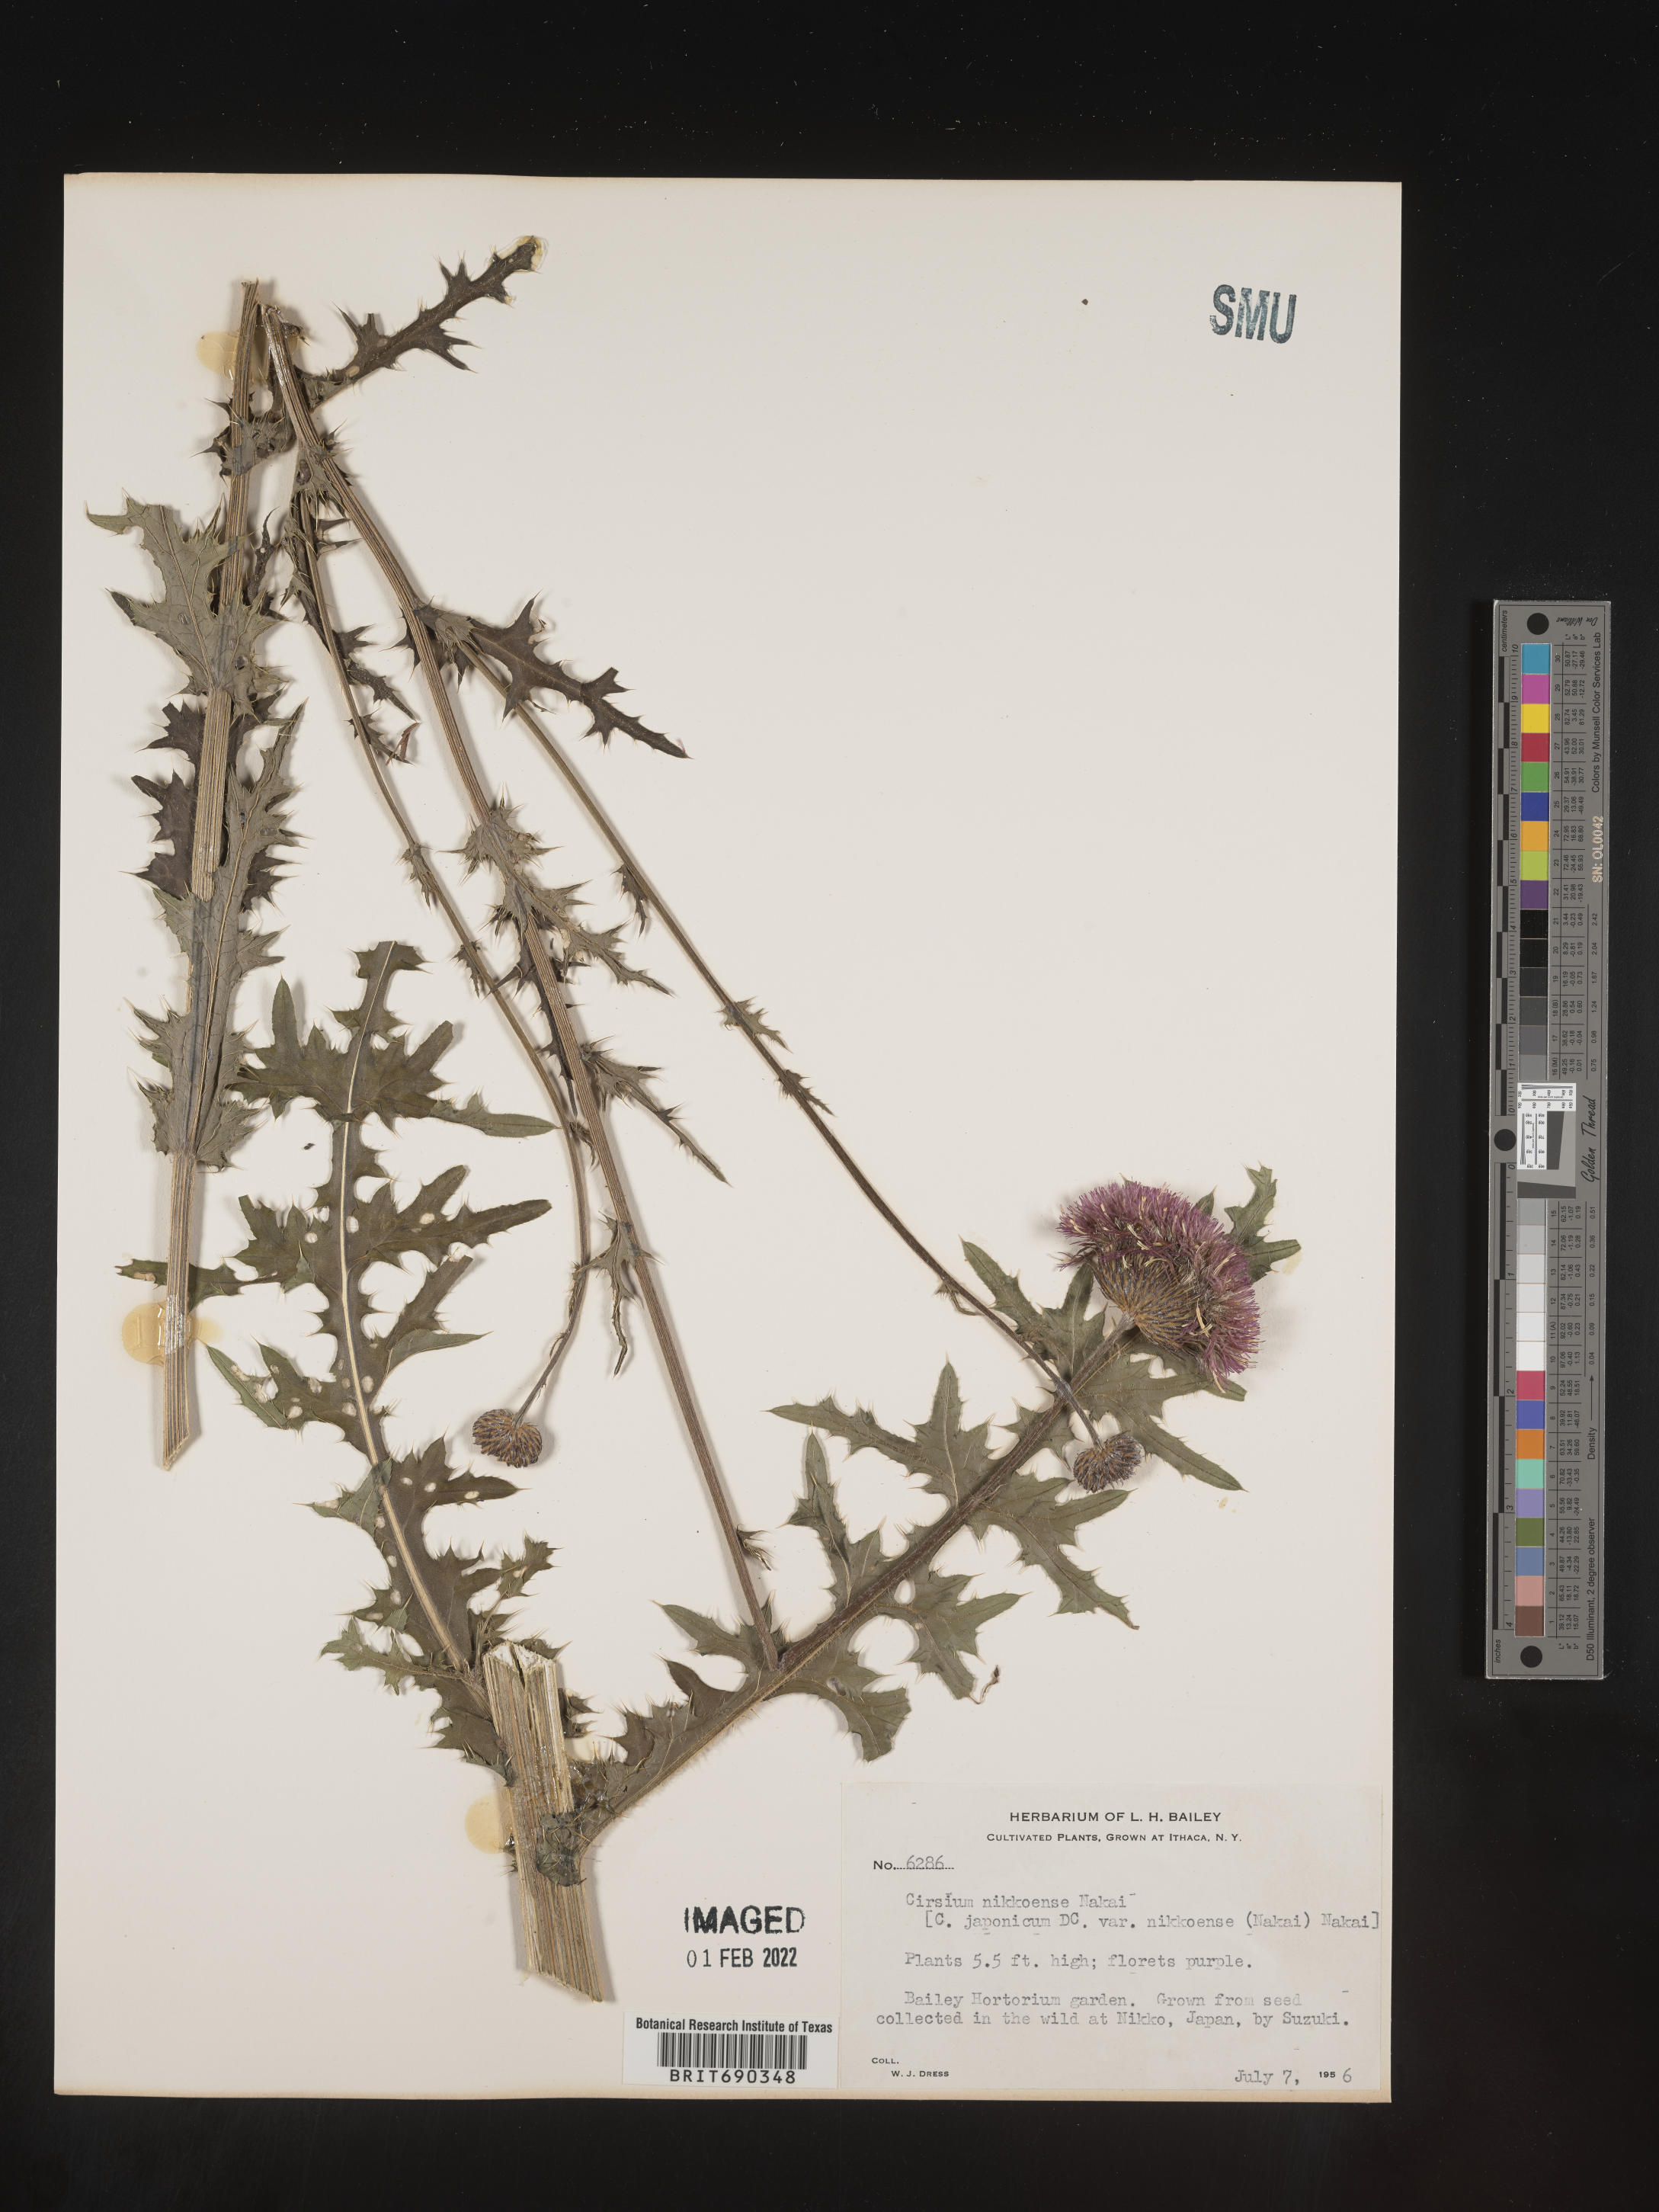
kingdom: Plantae
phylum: Tracheophyta
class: Magnoliopsida
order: Asterales
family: Asteraceae
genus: Cirsium
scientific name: Cirsium
